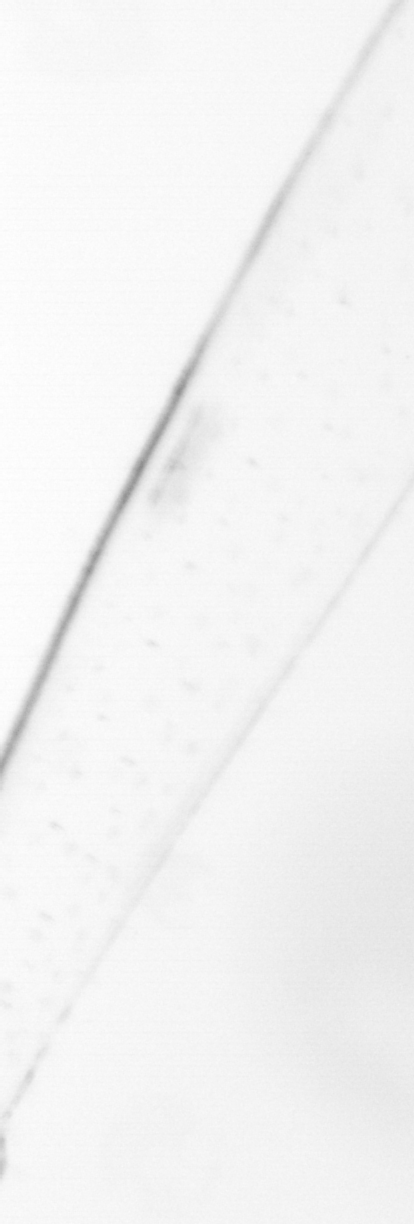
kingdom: Animalia
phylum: Chaetognatha
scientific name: Chaetognatha
